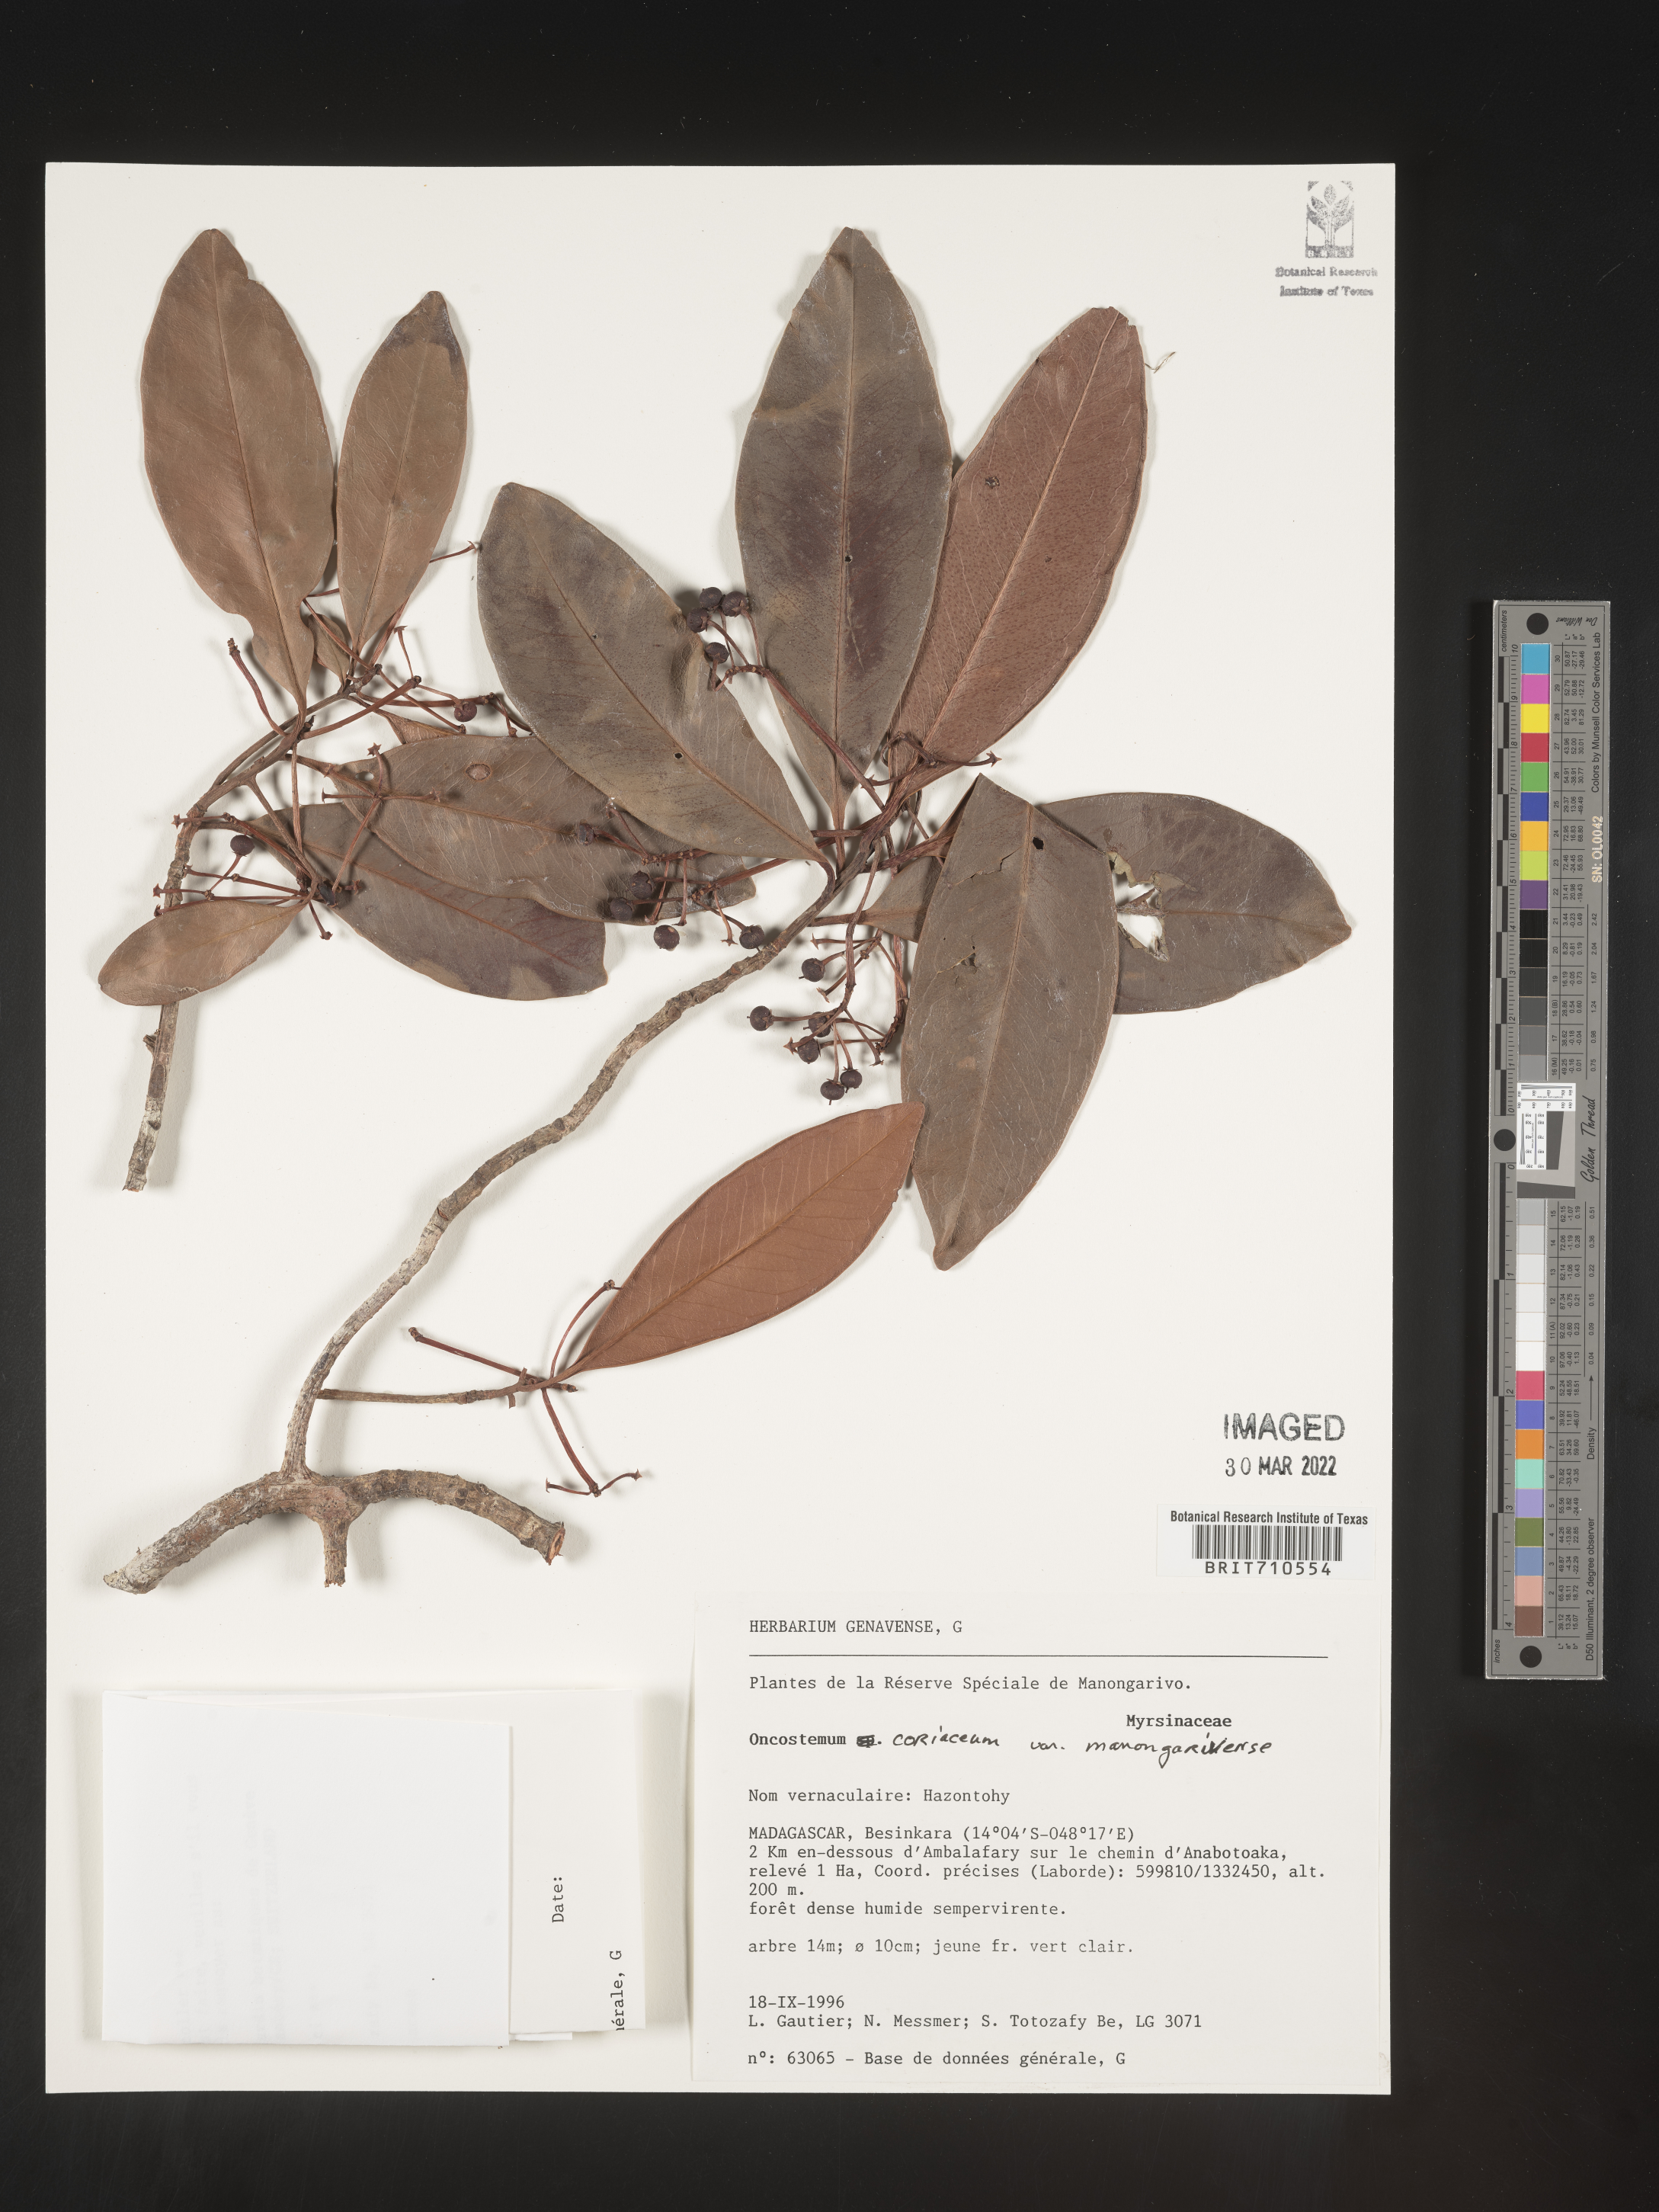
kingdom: Plantae
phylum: Tracheophyta
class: Magnoliopsida
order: Ericales
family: Primulaceae
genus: Oncostemum
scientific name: Oncostemum
